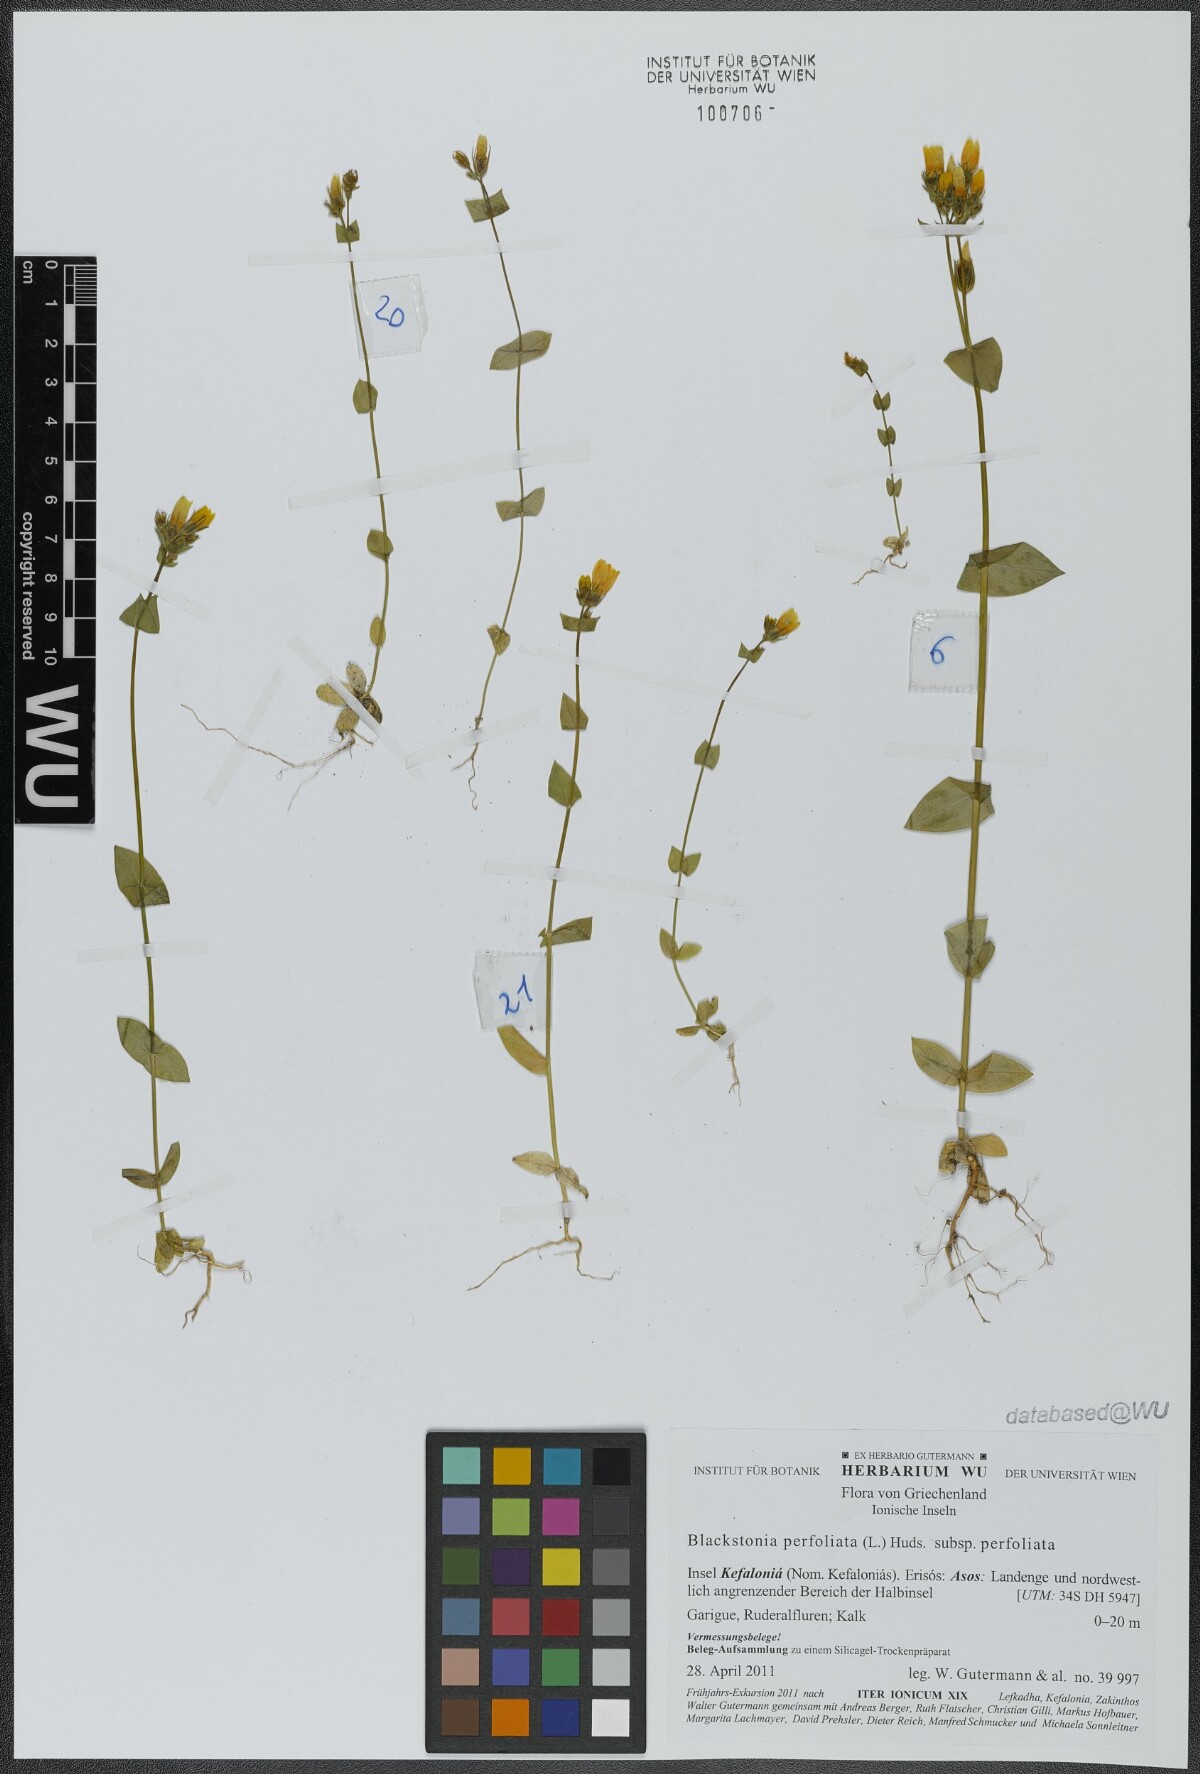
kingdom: Plantae
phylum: Tracheophyta
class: Magnoliopsida
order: Gentianales
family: Gentianaceae
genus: Blackstonia
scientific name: Blackstonia perfoliata
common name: Yellow-wort
